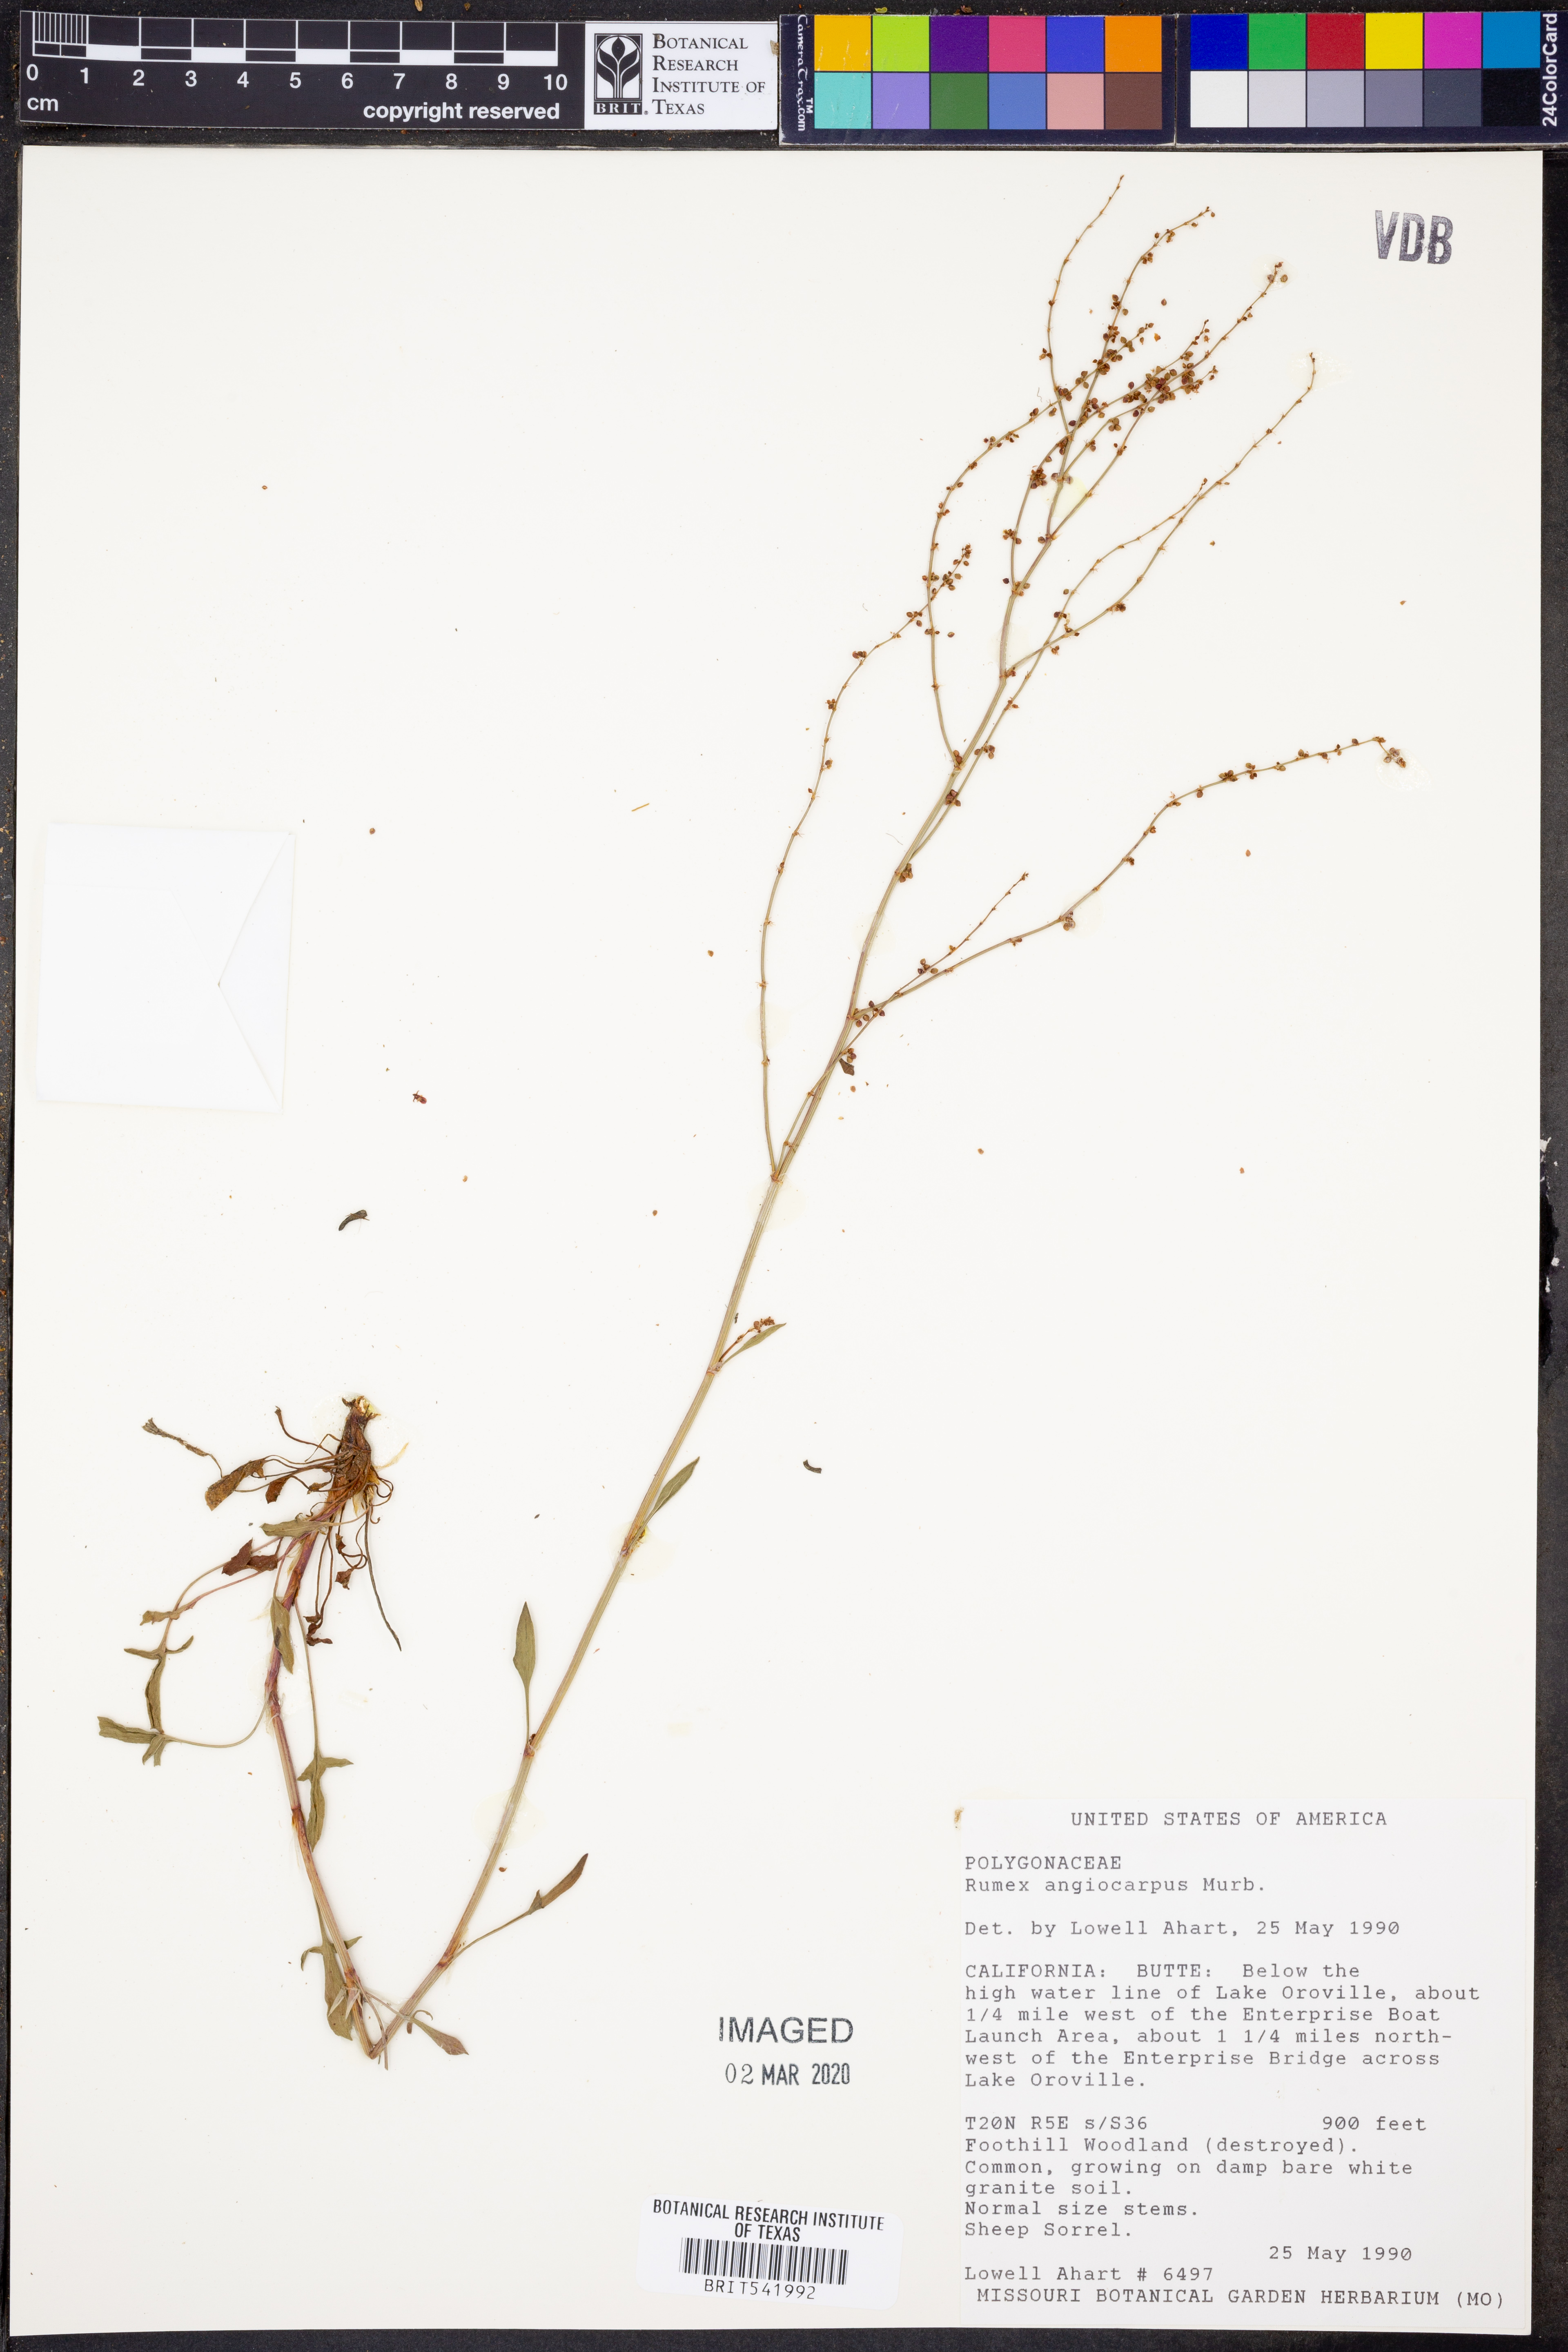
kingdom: Plantae
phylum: Tracheophyta
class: Magnoliopsida
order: Caryophyllales
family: Polygonaceae
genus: Rumex
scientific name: Rumex acetosella
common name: Common sheep sorrel
